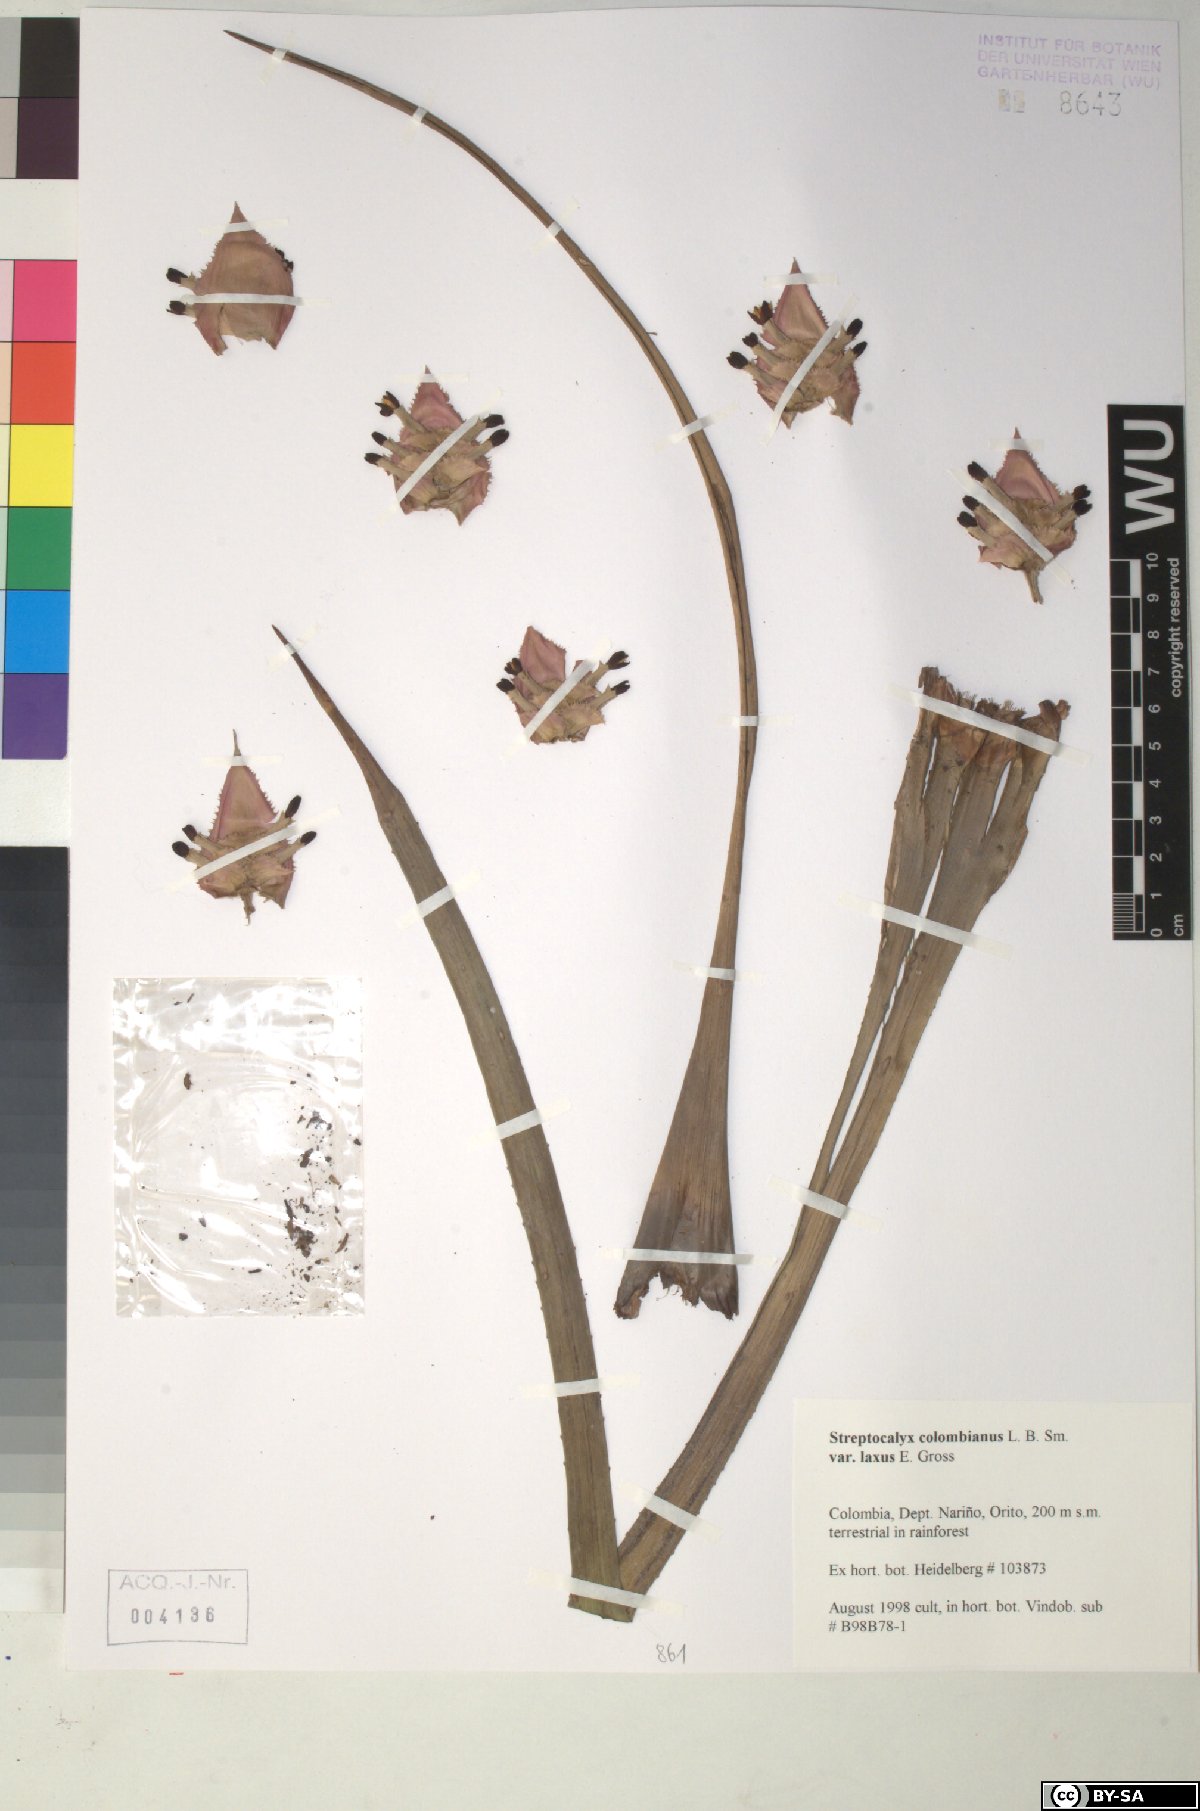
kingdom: Plantae
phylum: Tracheophyta
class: Liliopsida
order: Poales
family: Bromeliaceae
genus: Aechmea
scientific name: Aechmea colombiana
